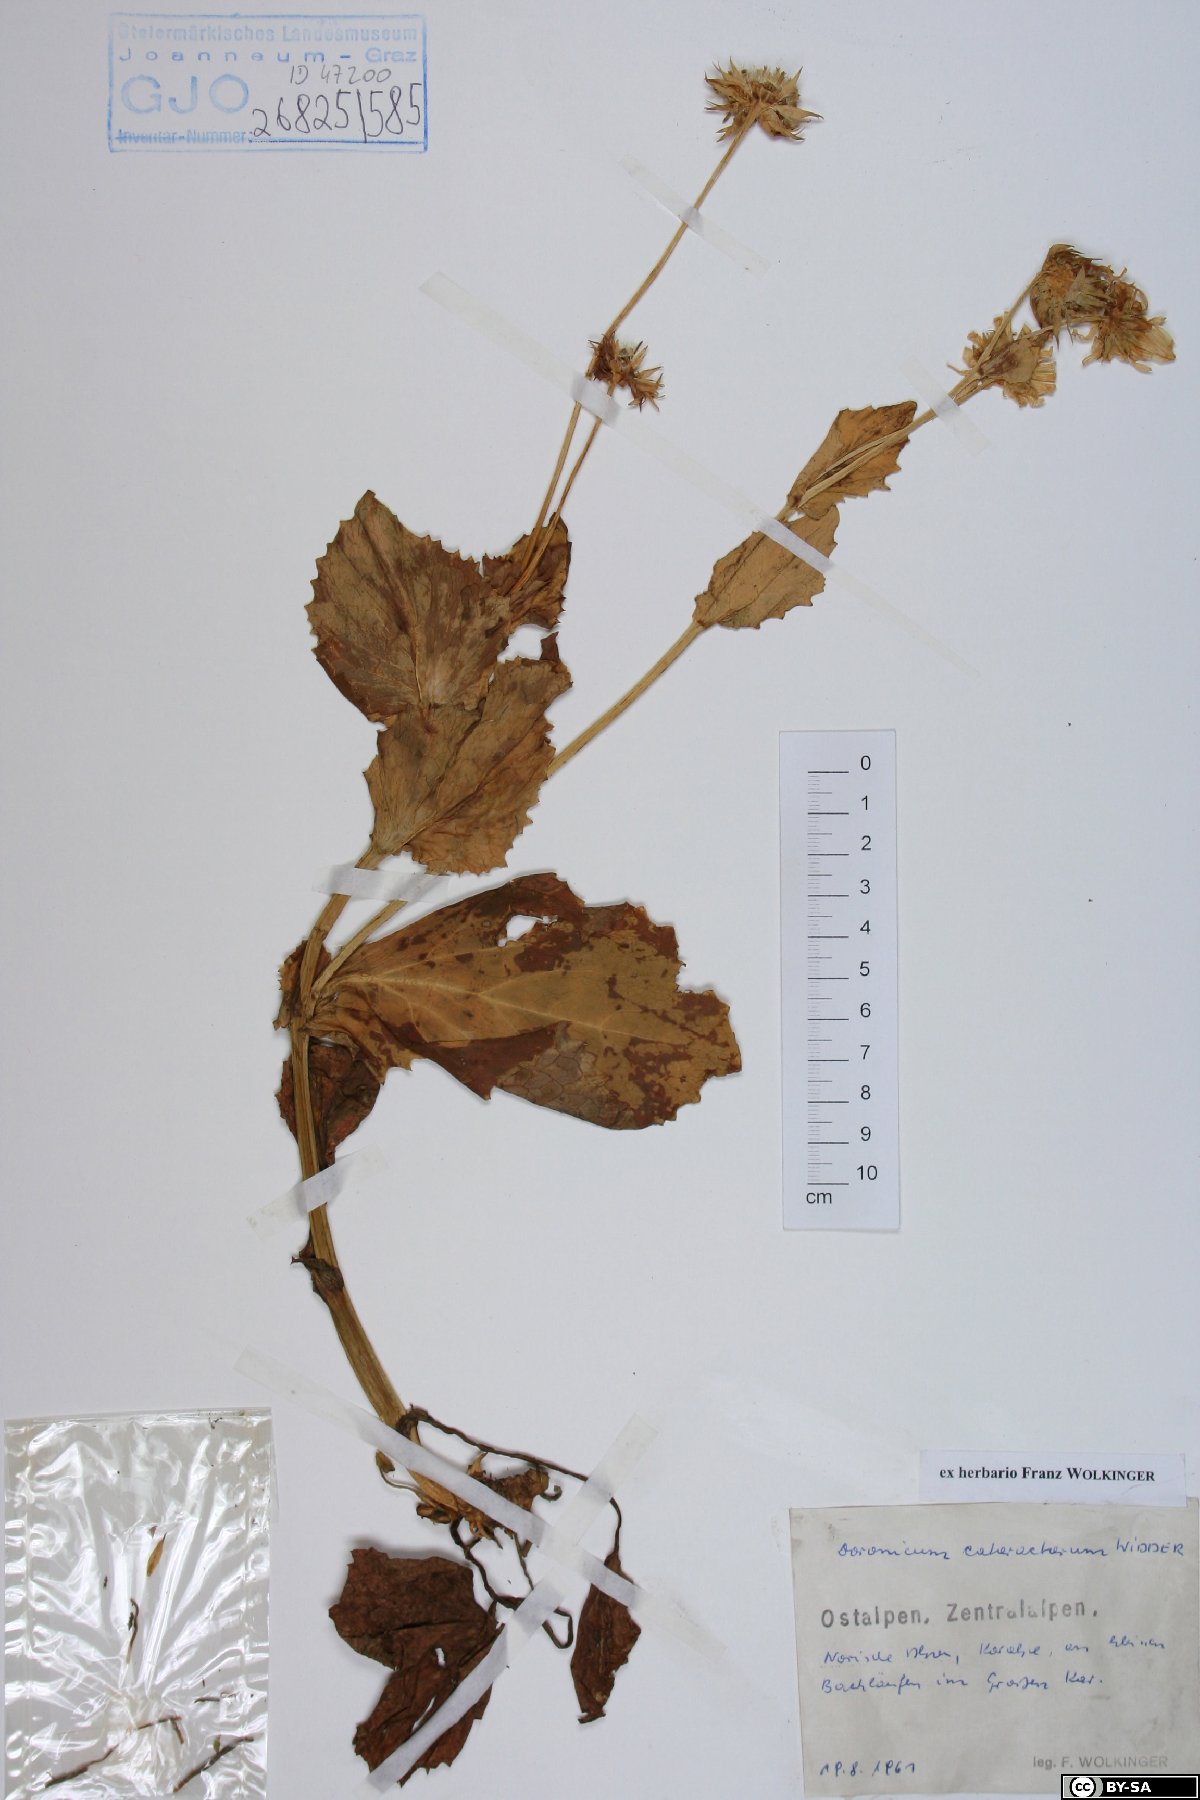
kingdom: Plantae
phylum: Tracheophyta
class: Magnoliopsida
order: Asterales
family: Asteraceae
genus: Doronicum
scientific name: Doronicum cataractarum
